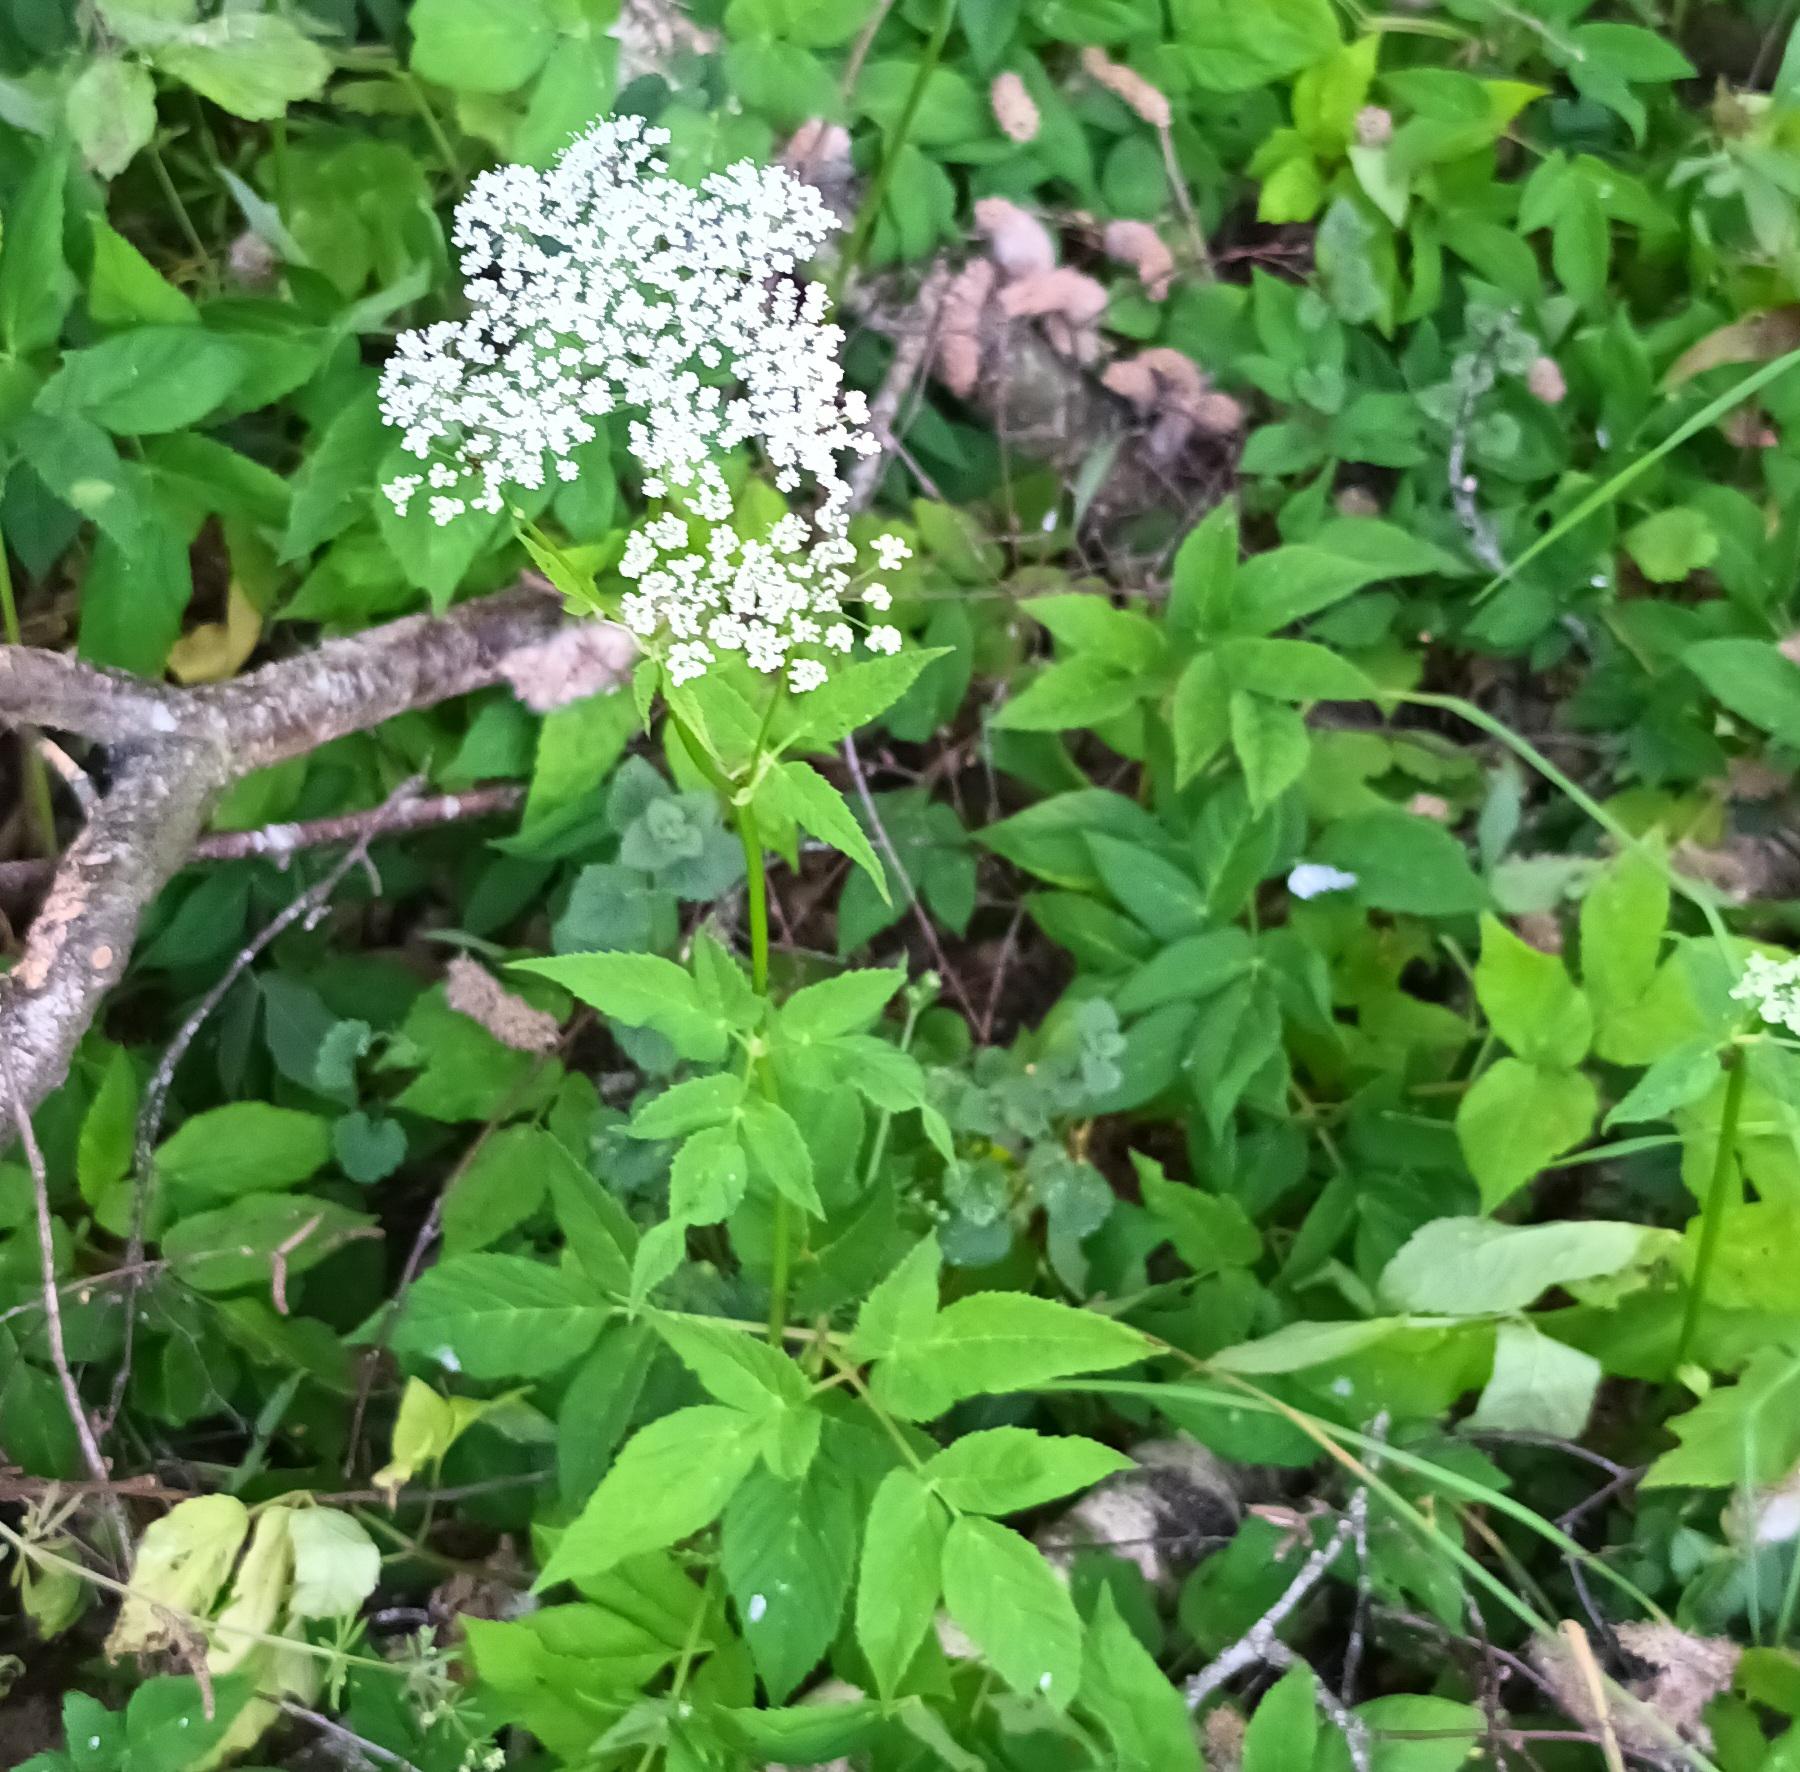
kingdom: Plantae
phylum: Tracheophyta
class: Magnoliopsida
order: Apiales
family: Apiaceae
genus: Aegopodium
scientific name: Aegopodium podagraria
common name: Skvalderkål
